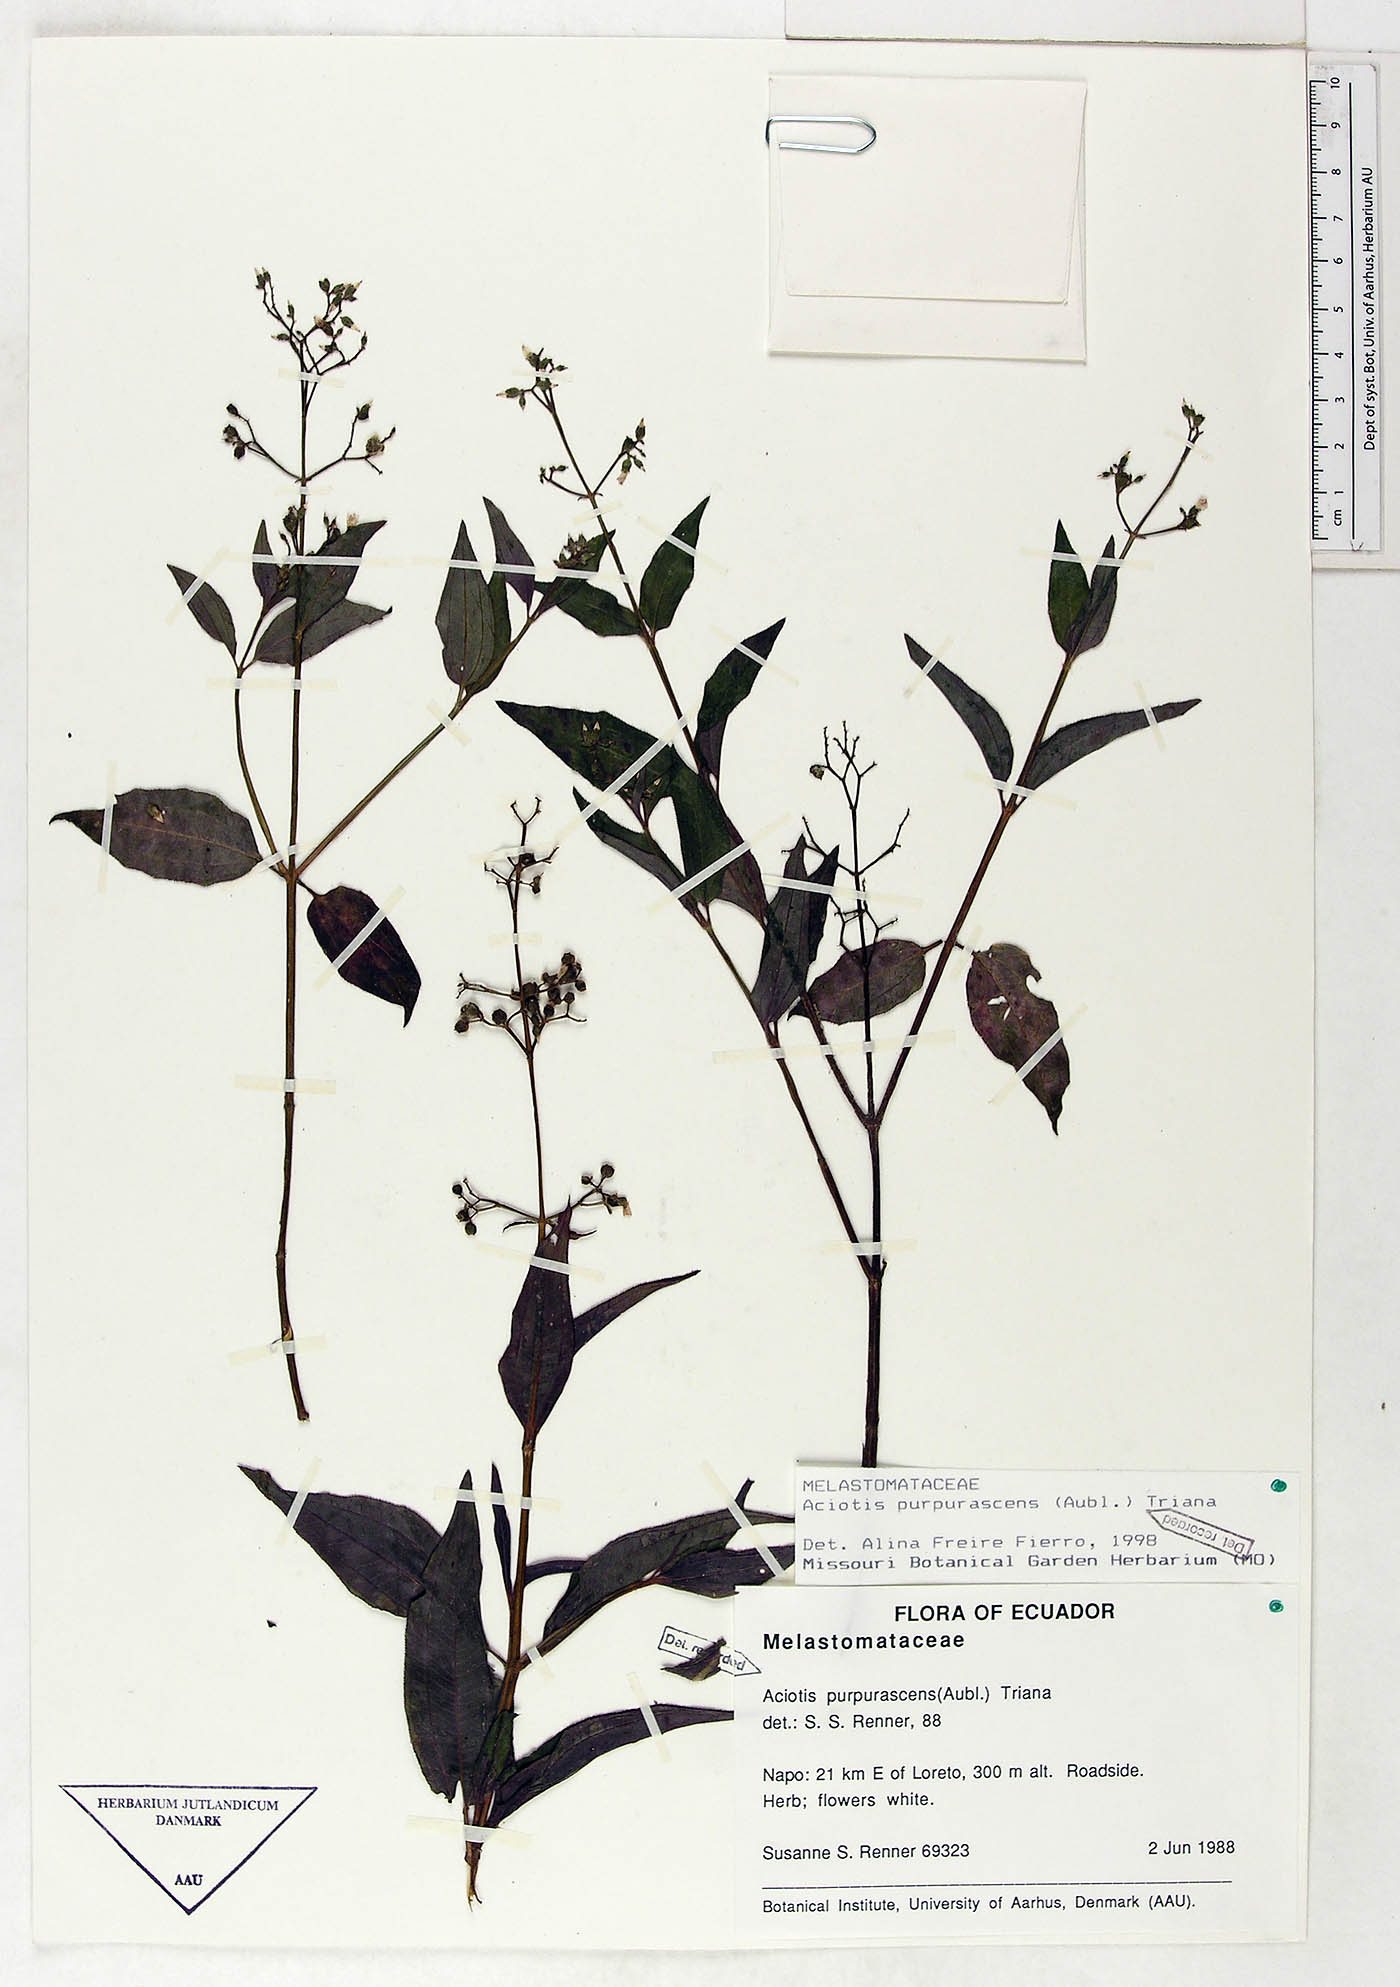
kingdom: Plantae
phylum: Tracheophyta
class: Magnoliopsida
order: Myrtales
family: Melastomataceae
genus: Aciotis
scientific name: Aciotis purpurascens
